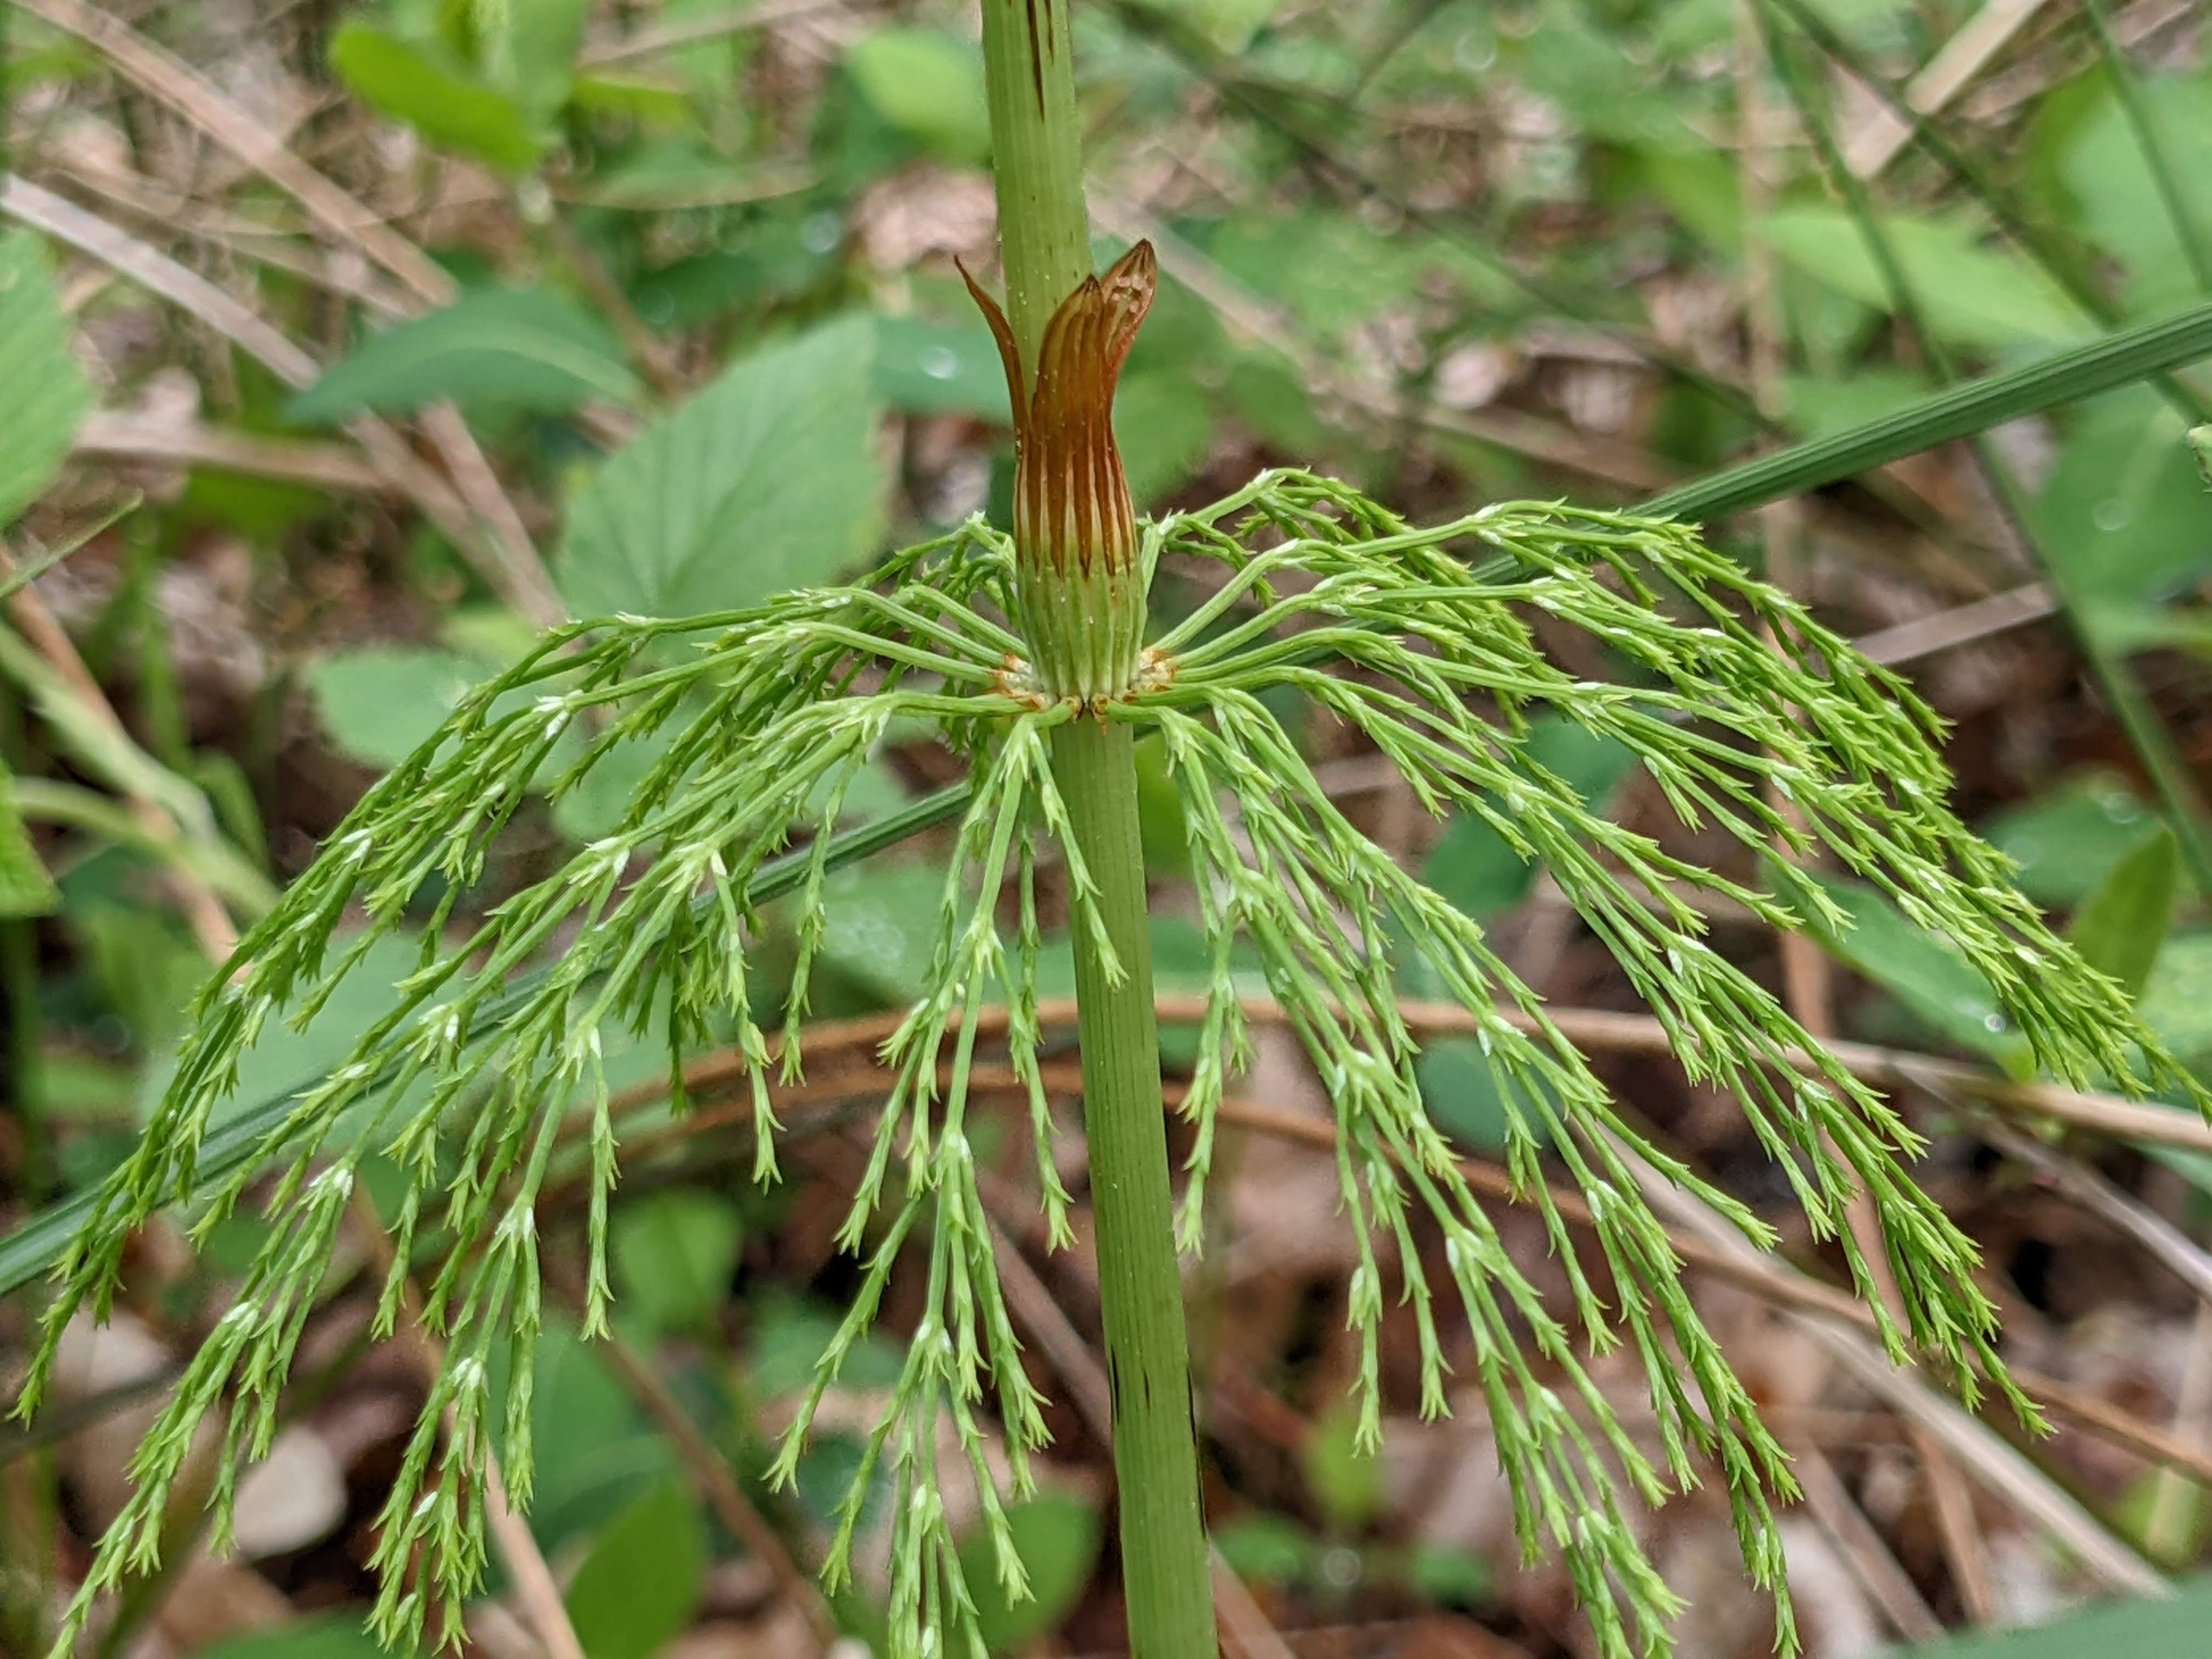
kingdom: Plantae
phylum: Tracheophyta
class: Polypodiopsida
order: Equisetales
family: Equisetaceae
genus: Equisetum
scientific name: Equisetum sylvaticum
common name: Skov-padderok
